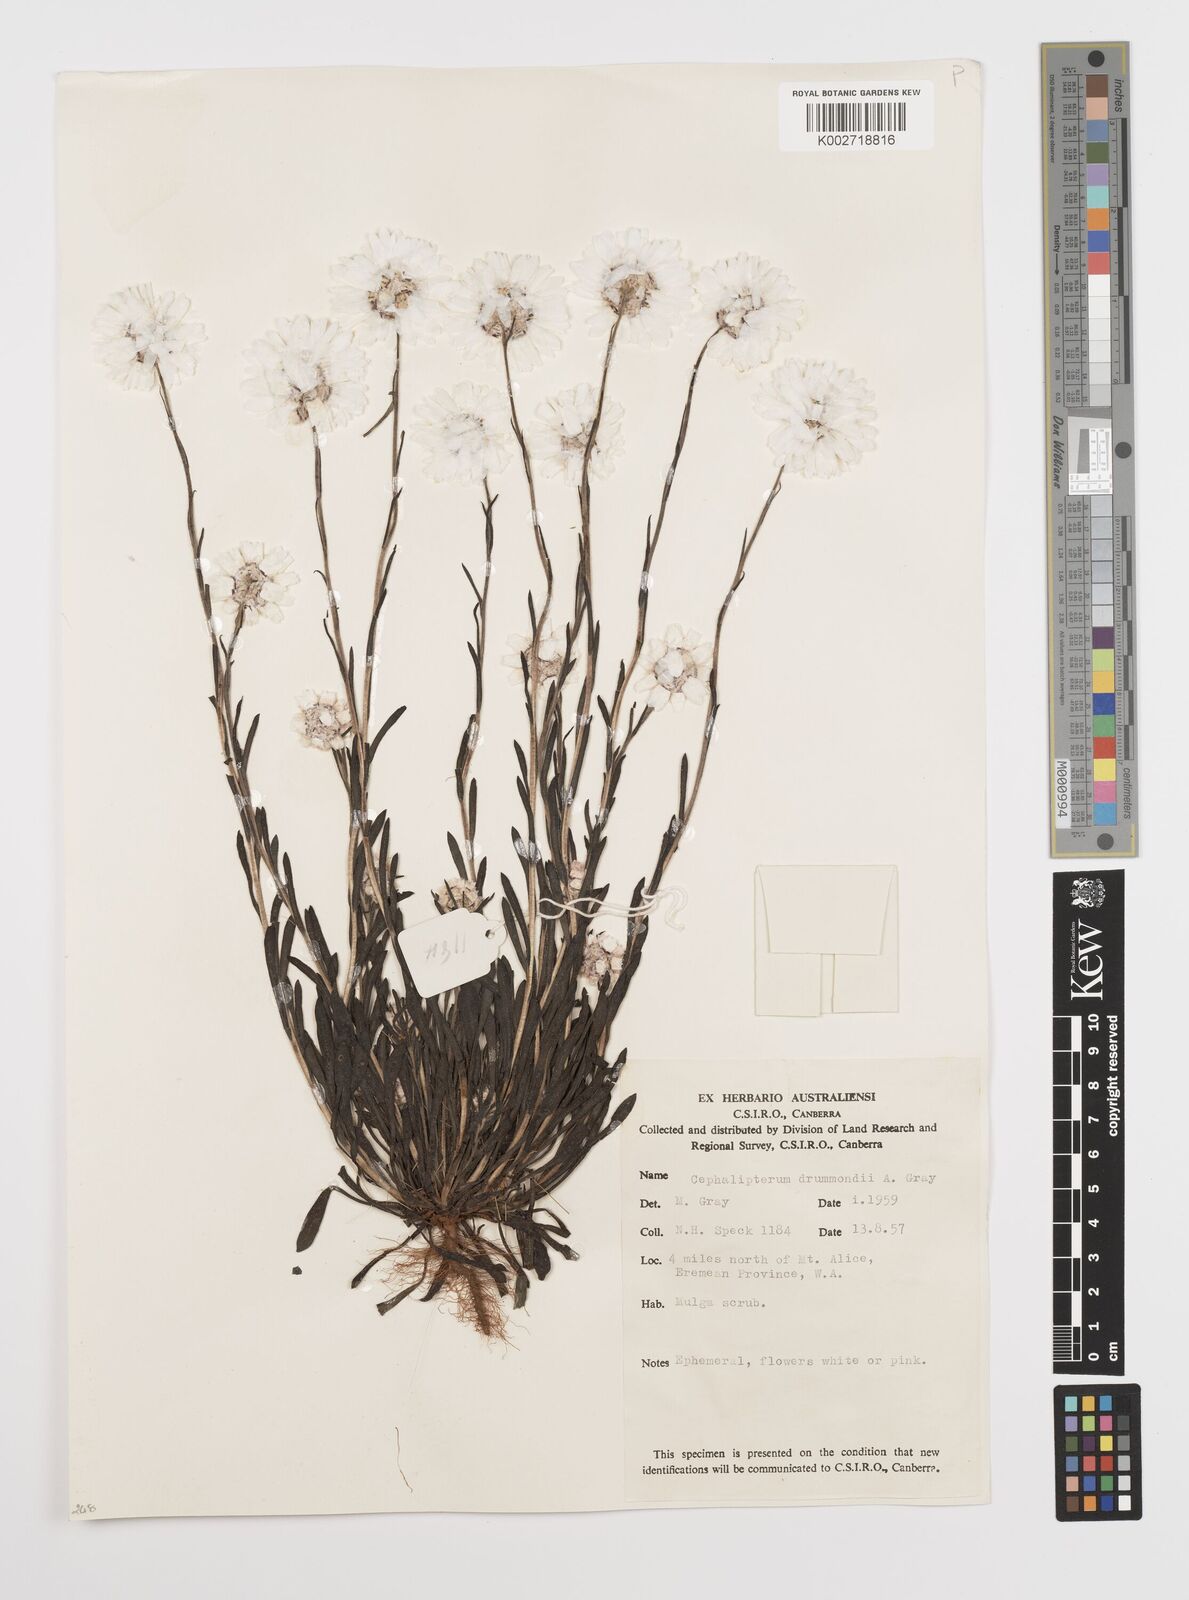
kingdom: Plantae
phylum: Tracheophyta
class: Magnoliopsida
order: Asterales
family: Asteraceae
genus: Cephalipterum
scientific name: Cephalipterum drummondii
